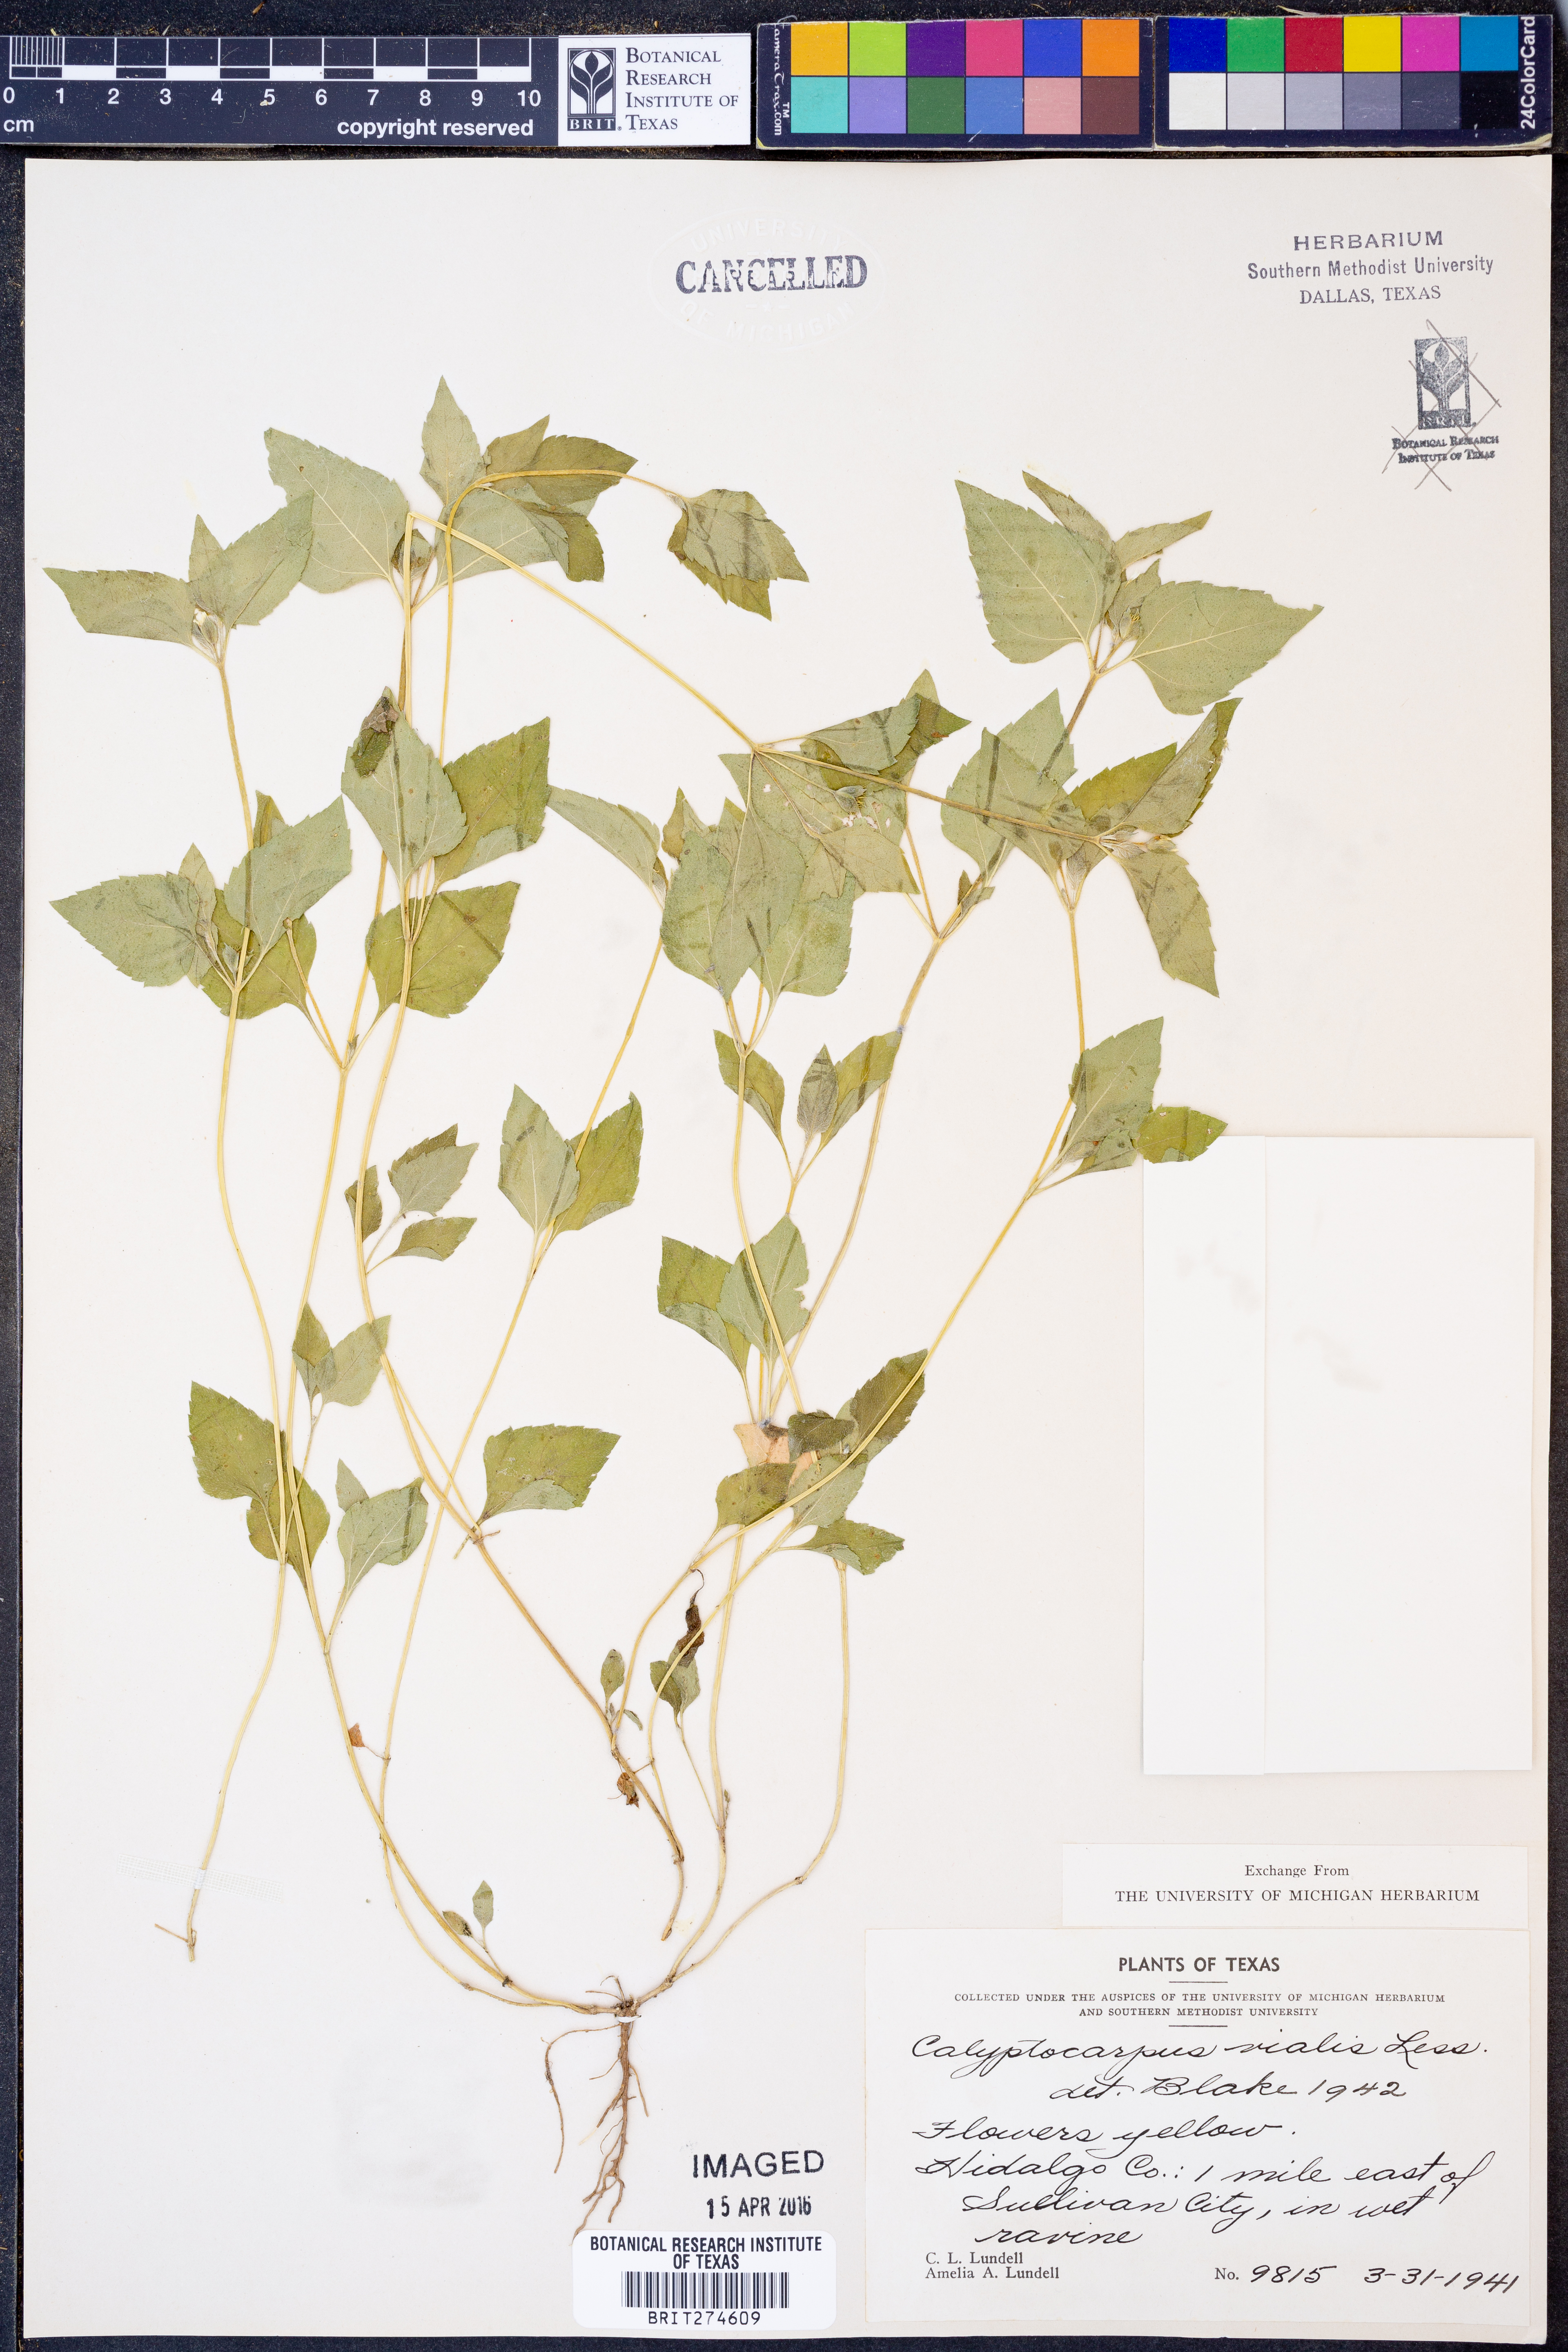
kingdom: Plantae
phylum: Tracheophyta
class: Magnoliopsida
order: Asterales
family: Asteraceae
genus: Calyptocarpus
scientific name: Calyptocarpus vialis
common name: Straggler daisy
